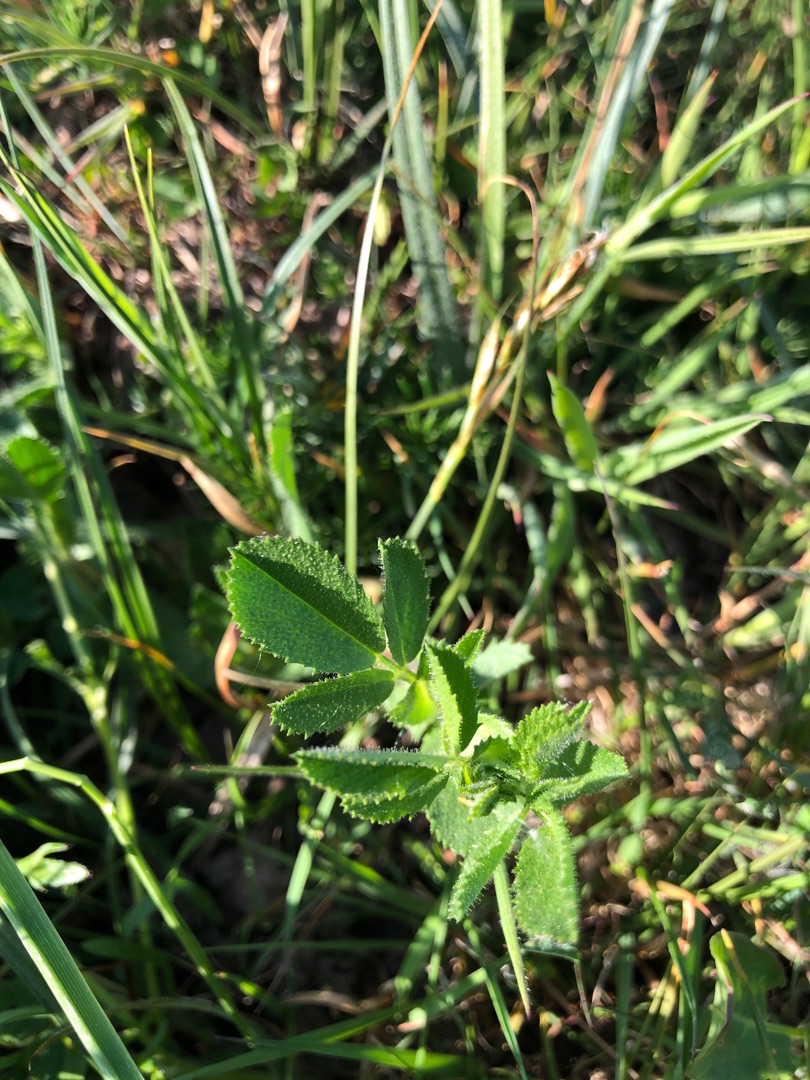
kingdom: Plantae
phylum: Tracheophyta
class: Magnoliopsida
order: Fabales
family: Fabaceae
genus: Ononis
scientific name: Ononis spinosa
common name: Krageklo
